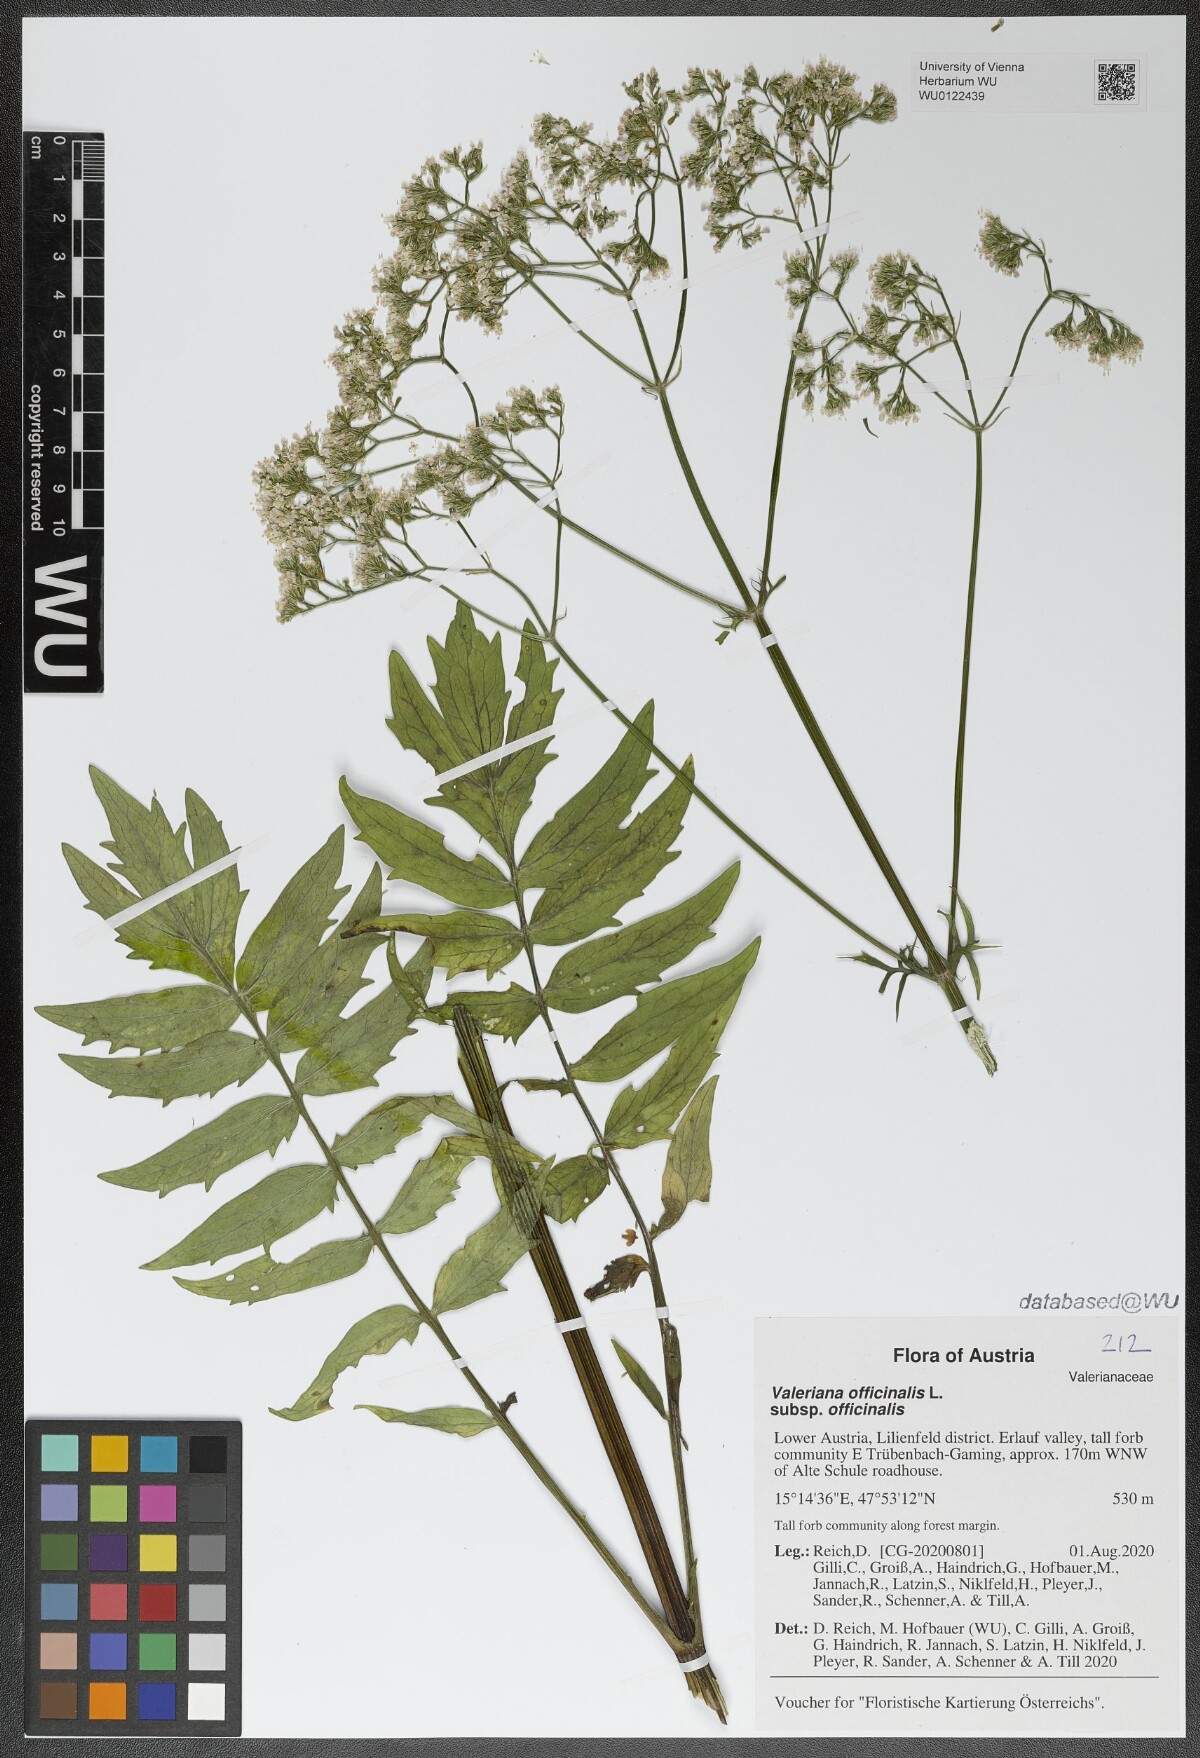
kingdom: Plantae
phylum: Tracheophyta
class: Magnoliopsida
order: Dipsacales
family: Caprifoliaceae
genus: Valeriana
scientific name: Valeriana officinalis
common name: Common valerian
